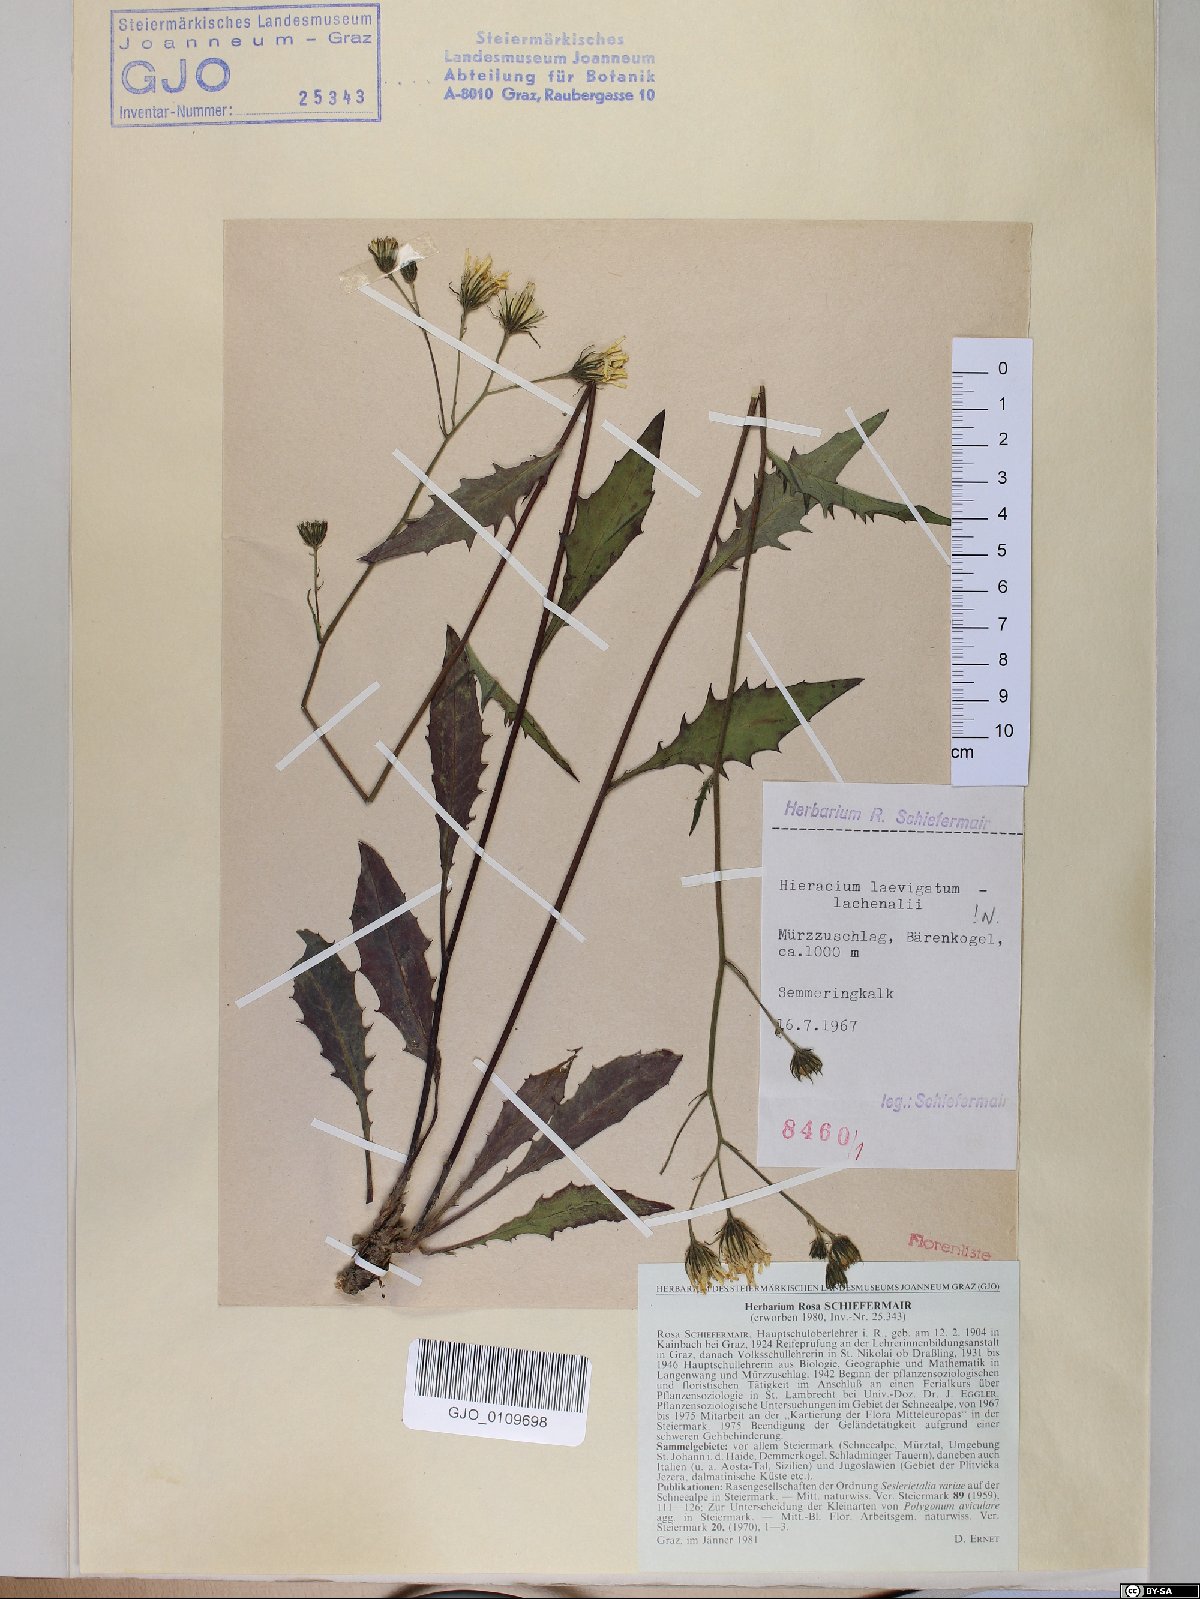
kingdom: Plantae
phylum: Tracheophyta
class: Magnoliopsida
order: Asterales
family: Asteraceae
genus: Hieracium
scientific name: Hieracium laevigatum
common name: Smooth hawkweed
